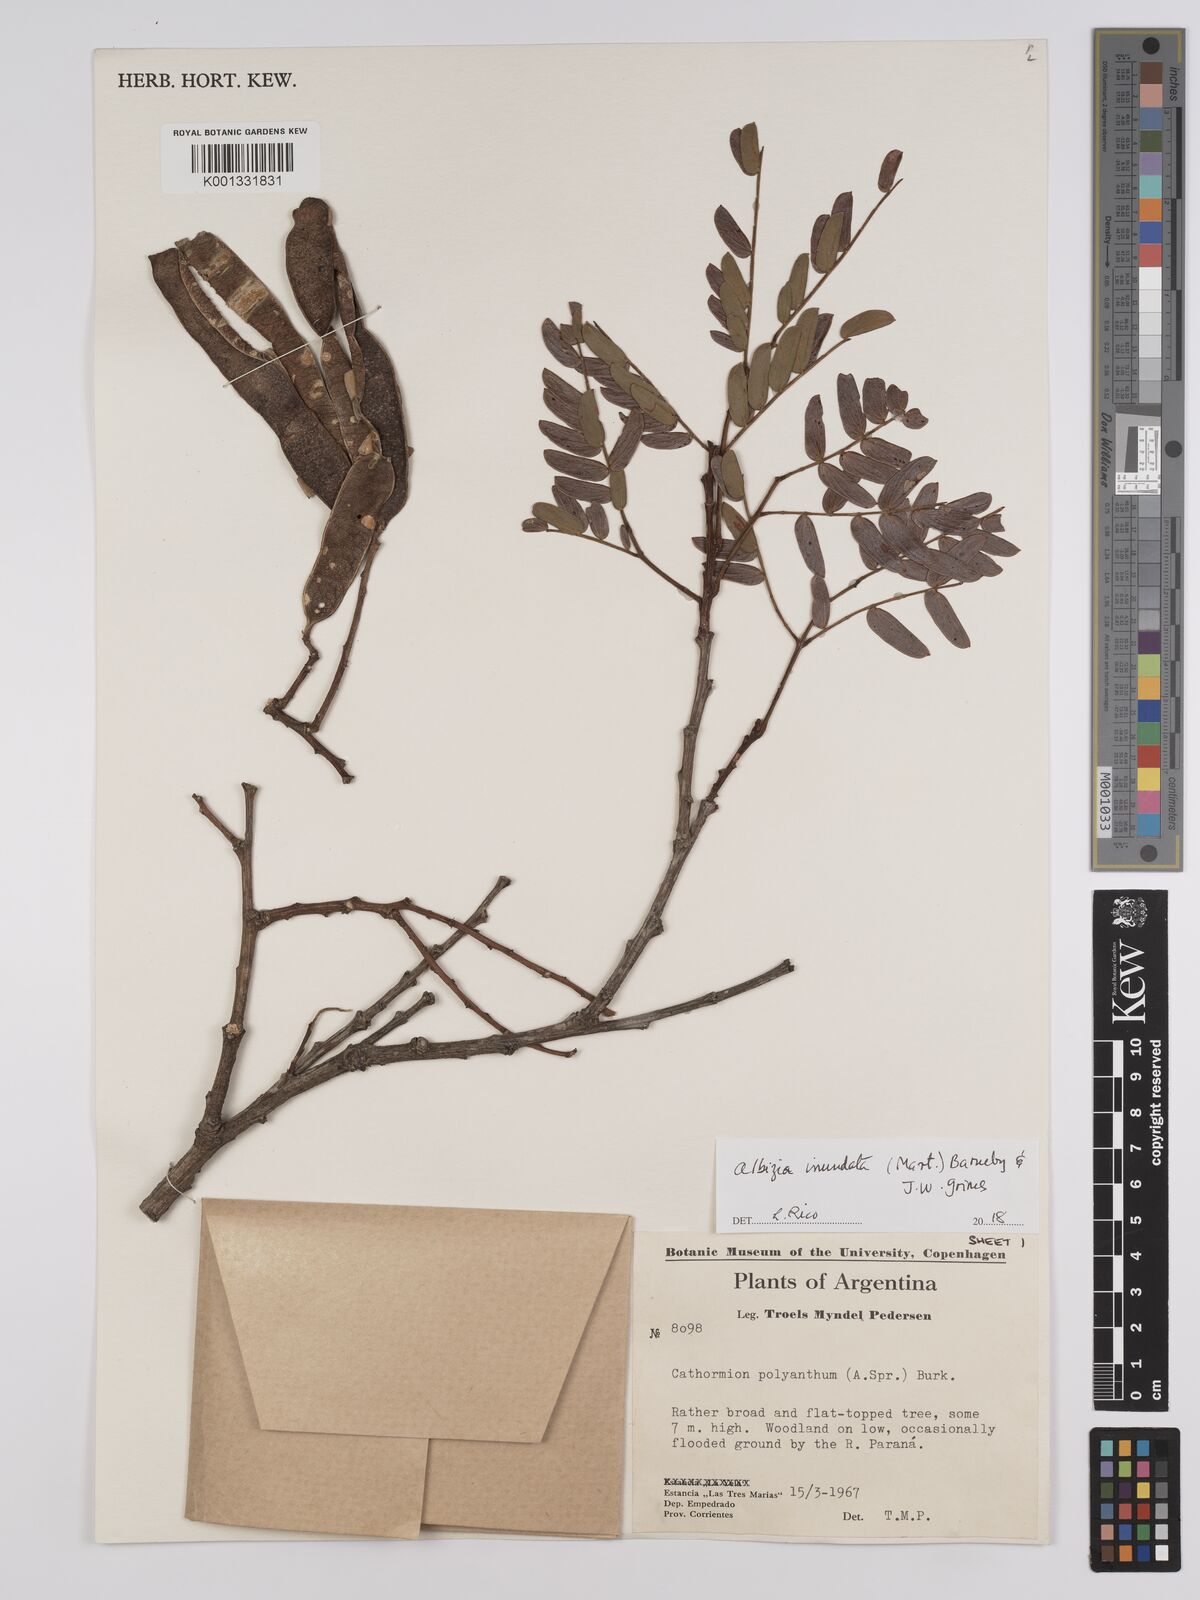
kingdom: Plantae
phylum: Tracheophyta
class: Magnoliopsida
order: Fabales
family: Fabaceae
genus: Albizia
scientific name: Albizia inundata
